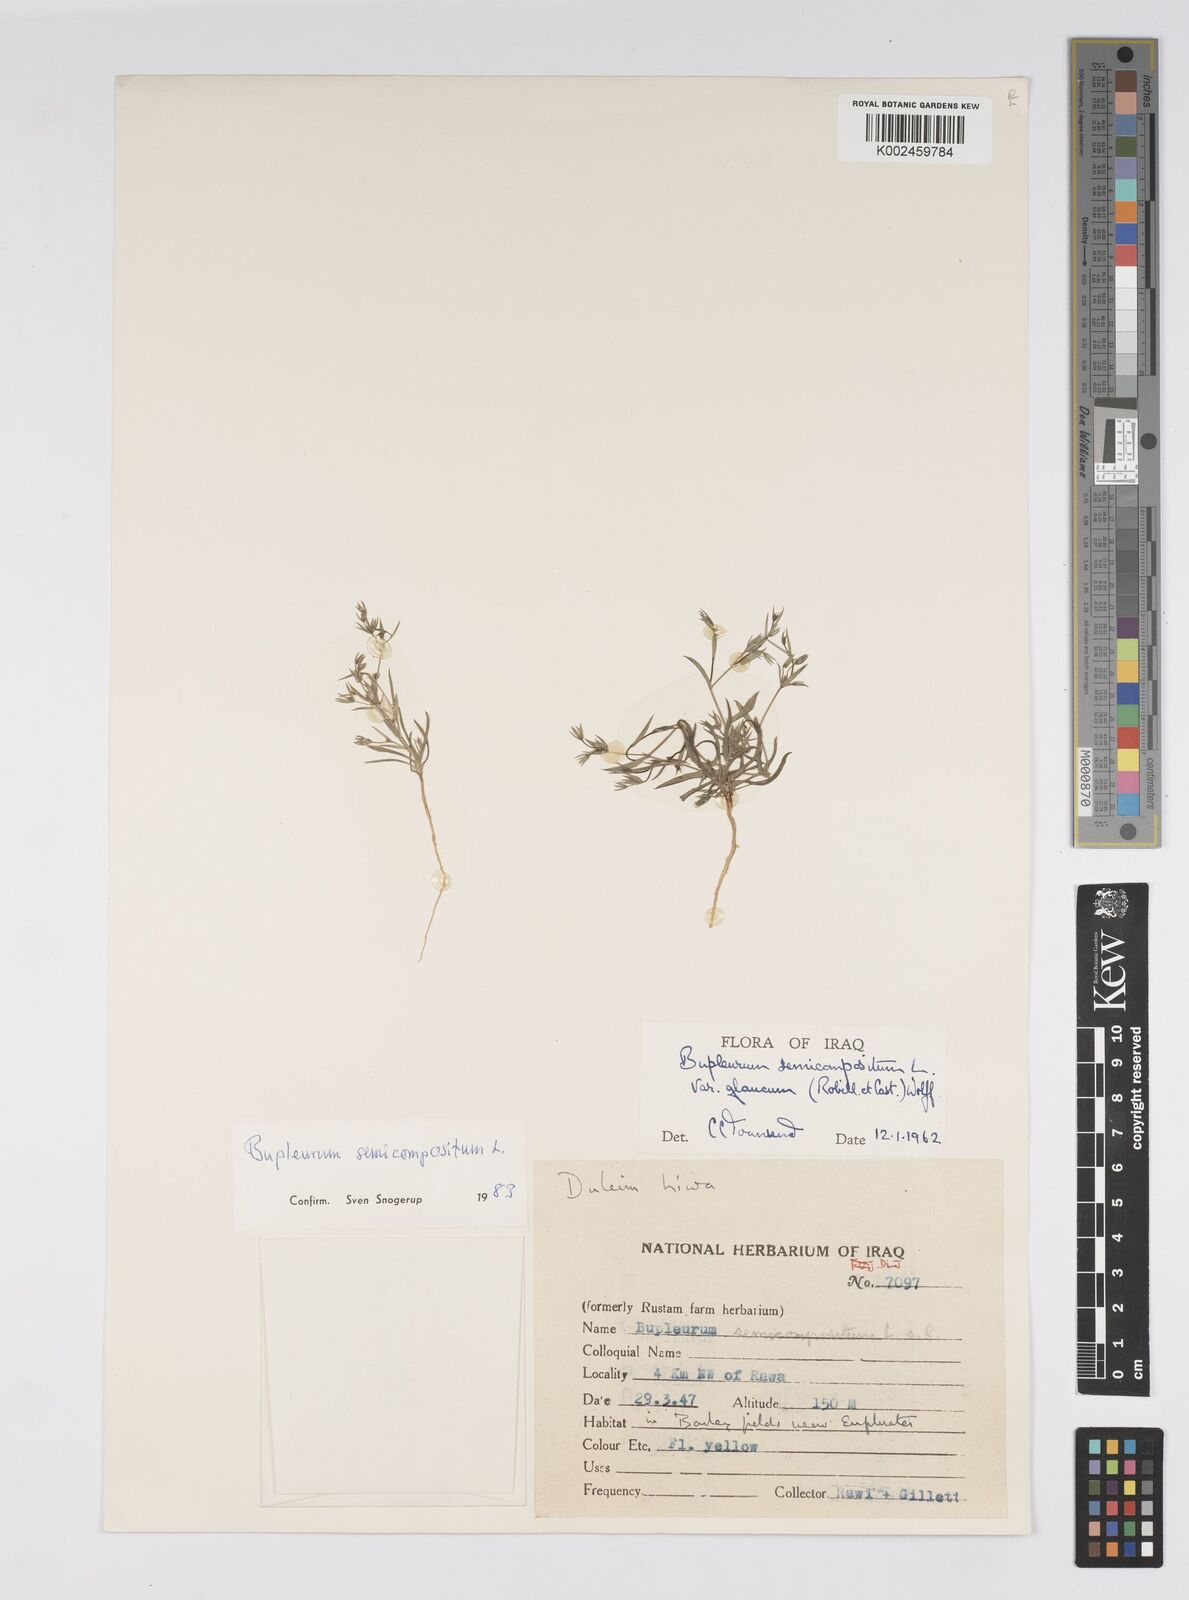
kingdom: Plantae
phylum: Tracheophyta
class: Magnoliopsida
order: Apiales
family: Apiaceae
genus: Bupleurum
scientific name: Bupleurum semicompositum
